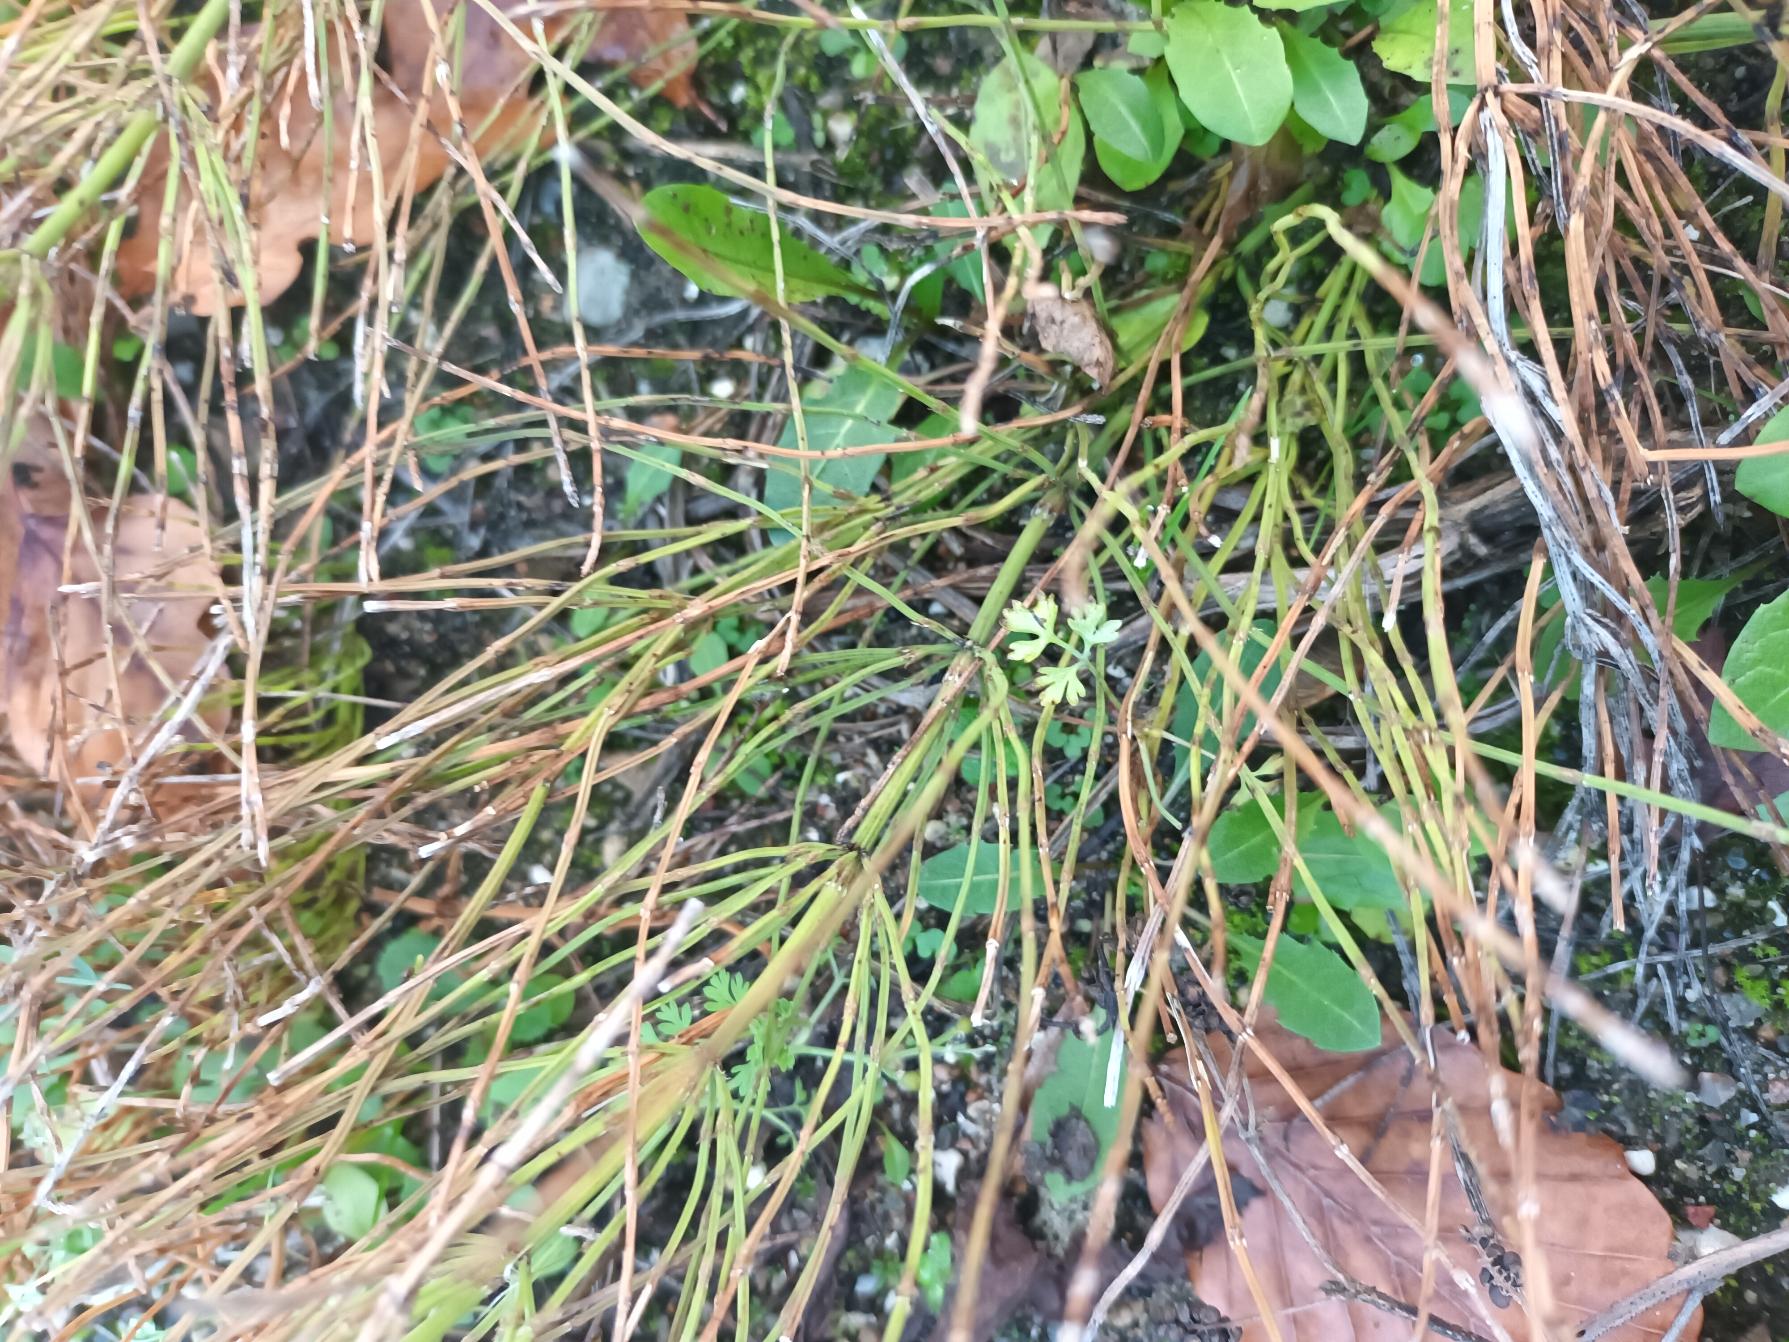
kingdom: Plantae
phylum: Tracheophyta
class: Polypodiopsida
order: Equisetales
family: Equisetaceae
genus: Equisetum
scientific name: Equisetum arvense
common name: Ager-padderok
